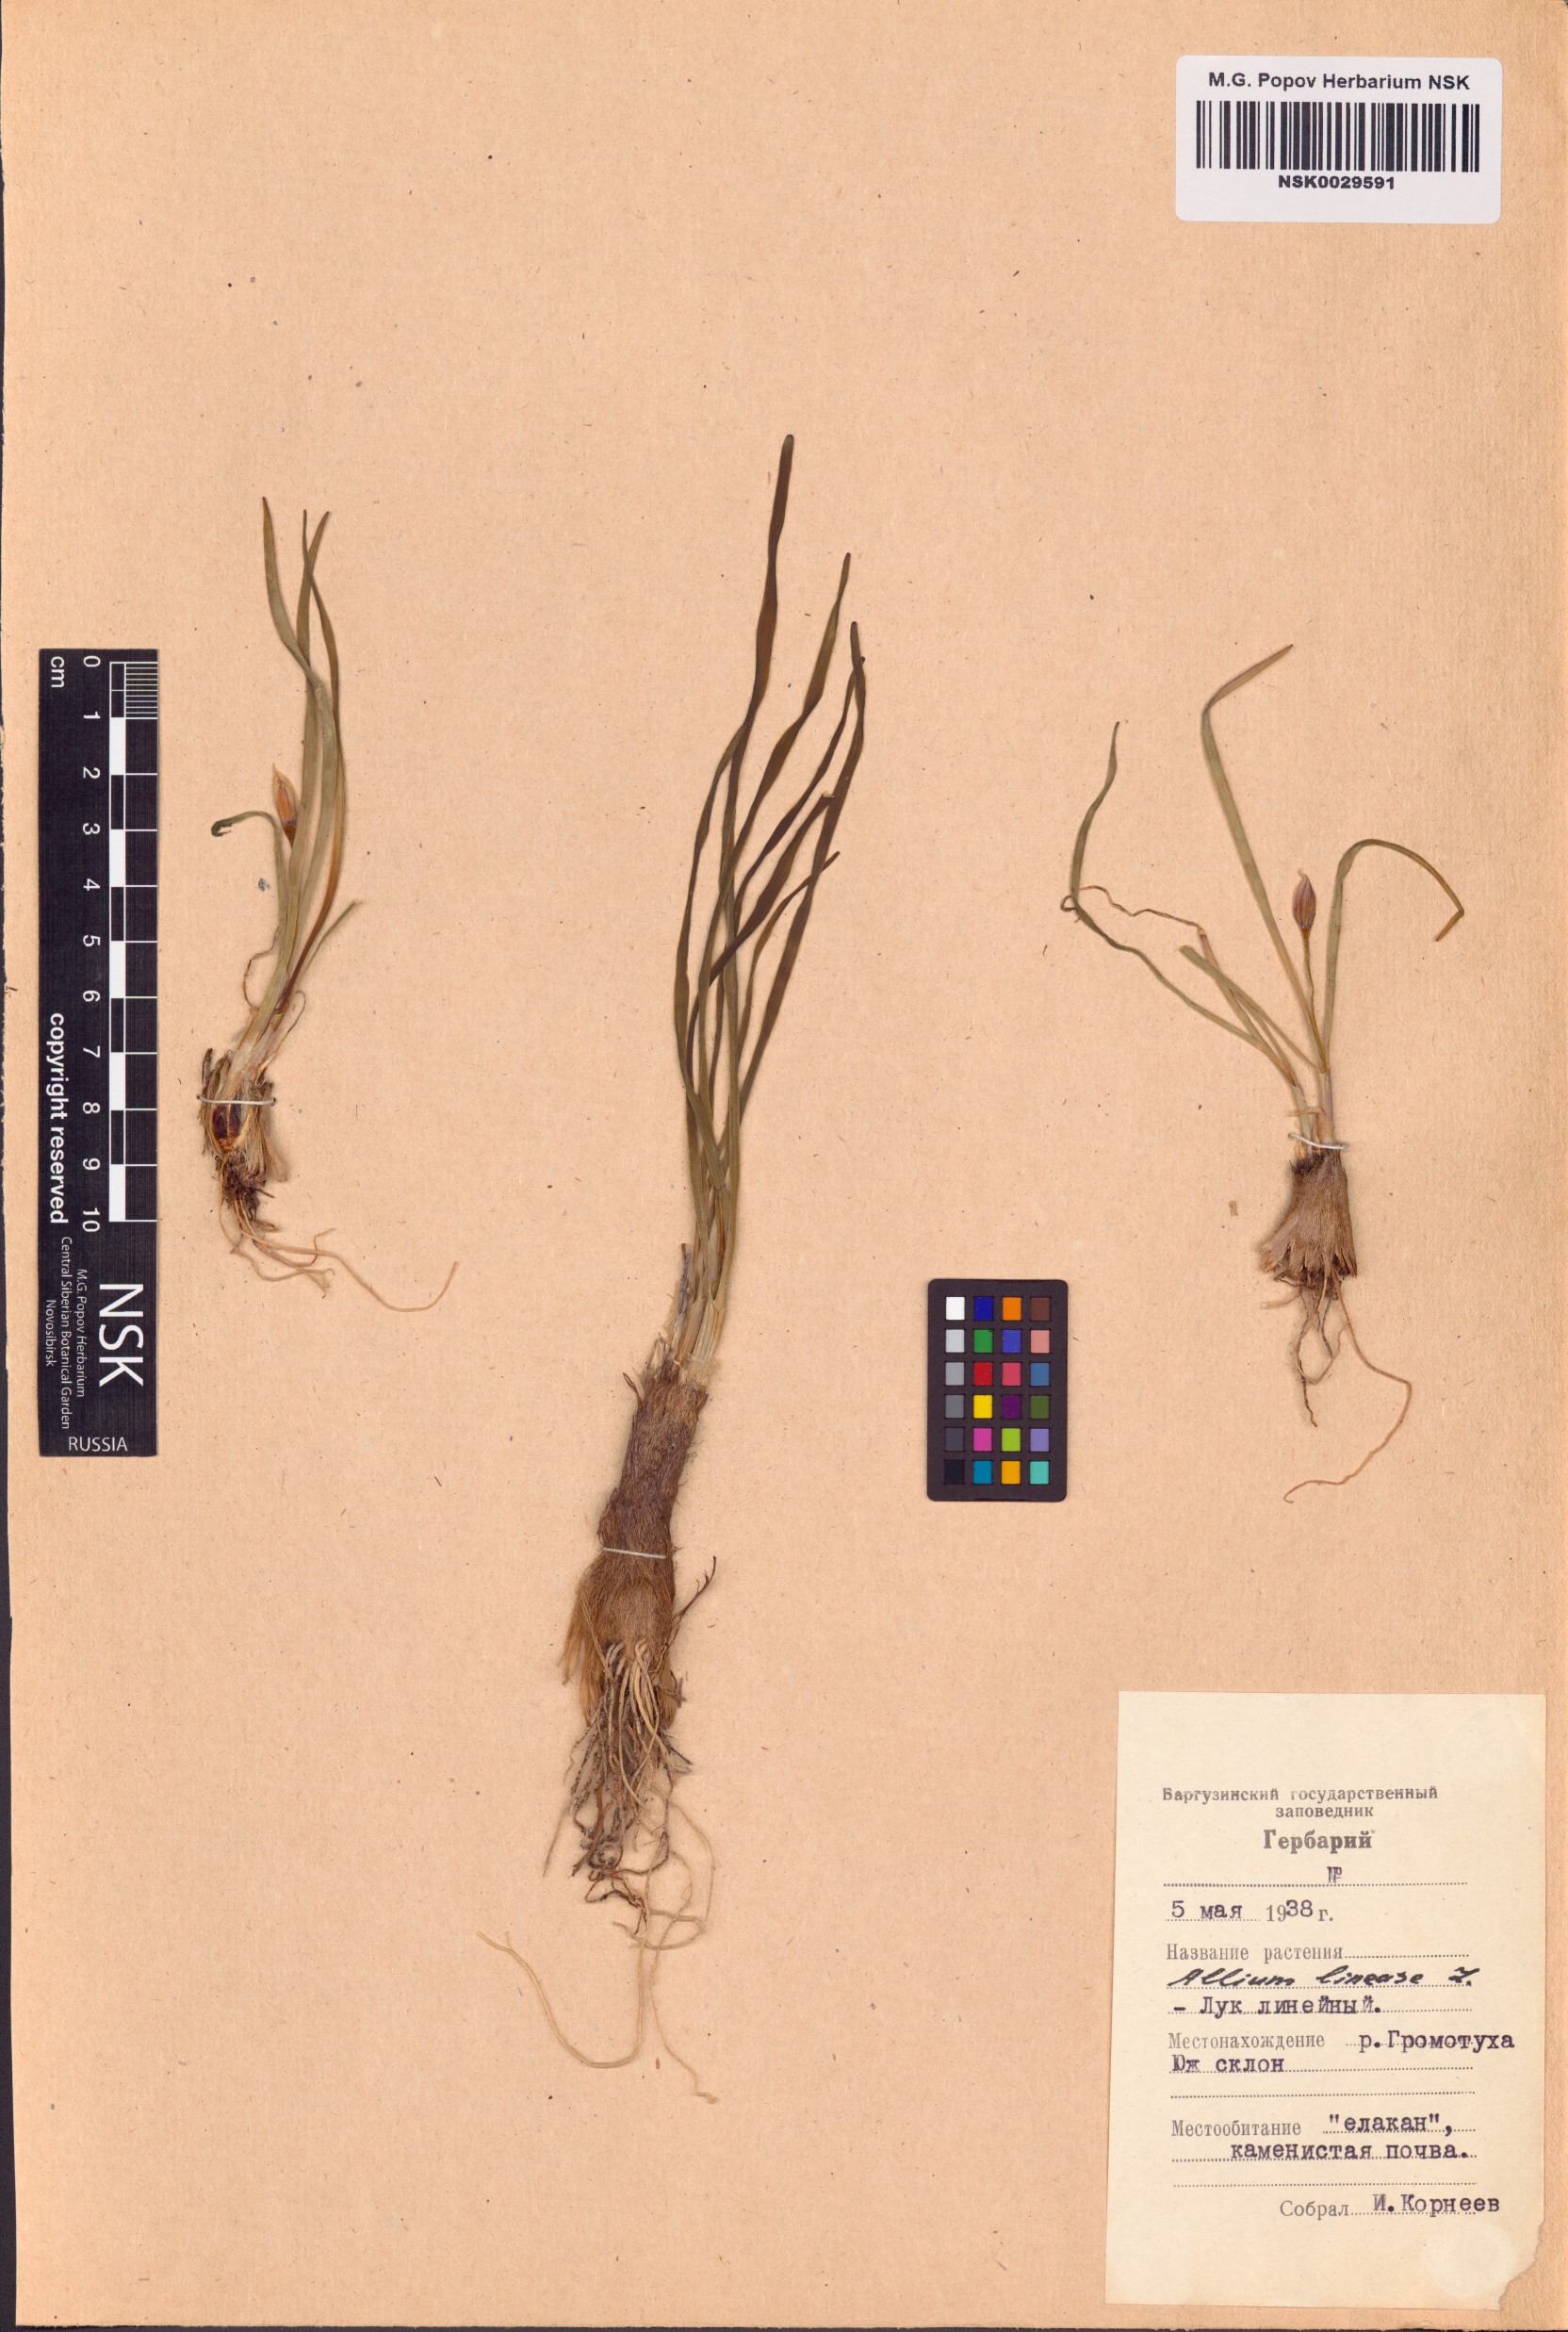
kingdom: Plantae
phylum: Tracheophyta
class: Liliopsida
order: Asparagales
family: Amaryllidaceae
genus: Allium
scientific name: Allium lineare
